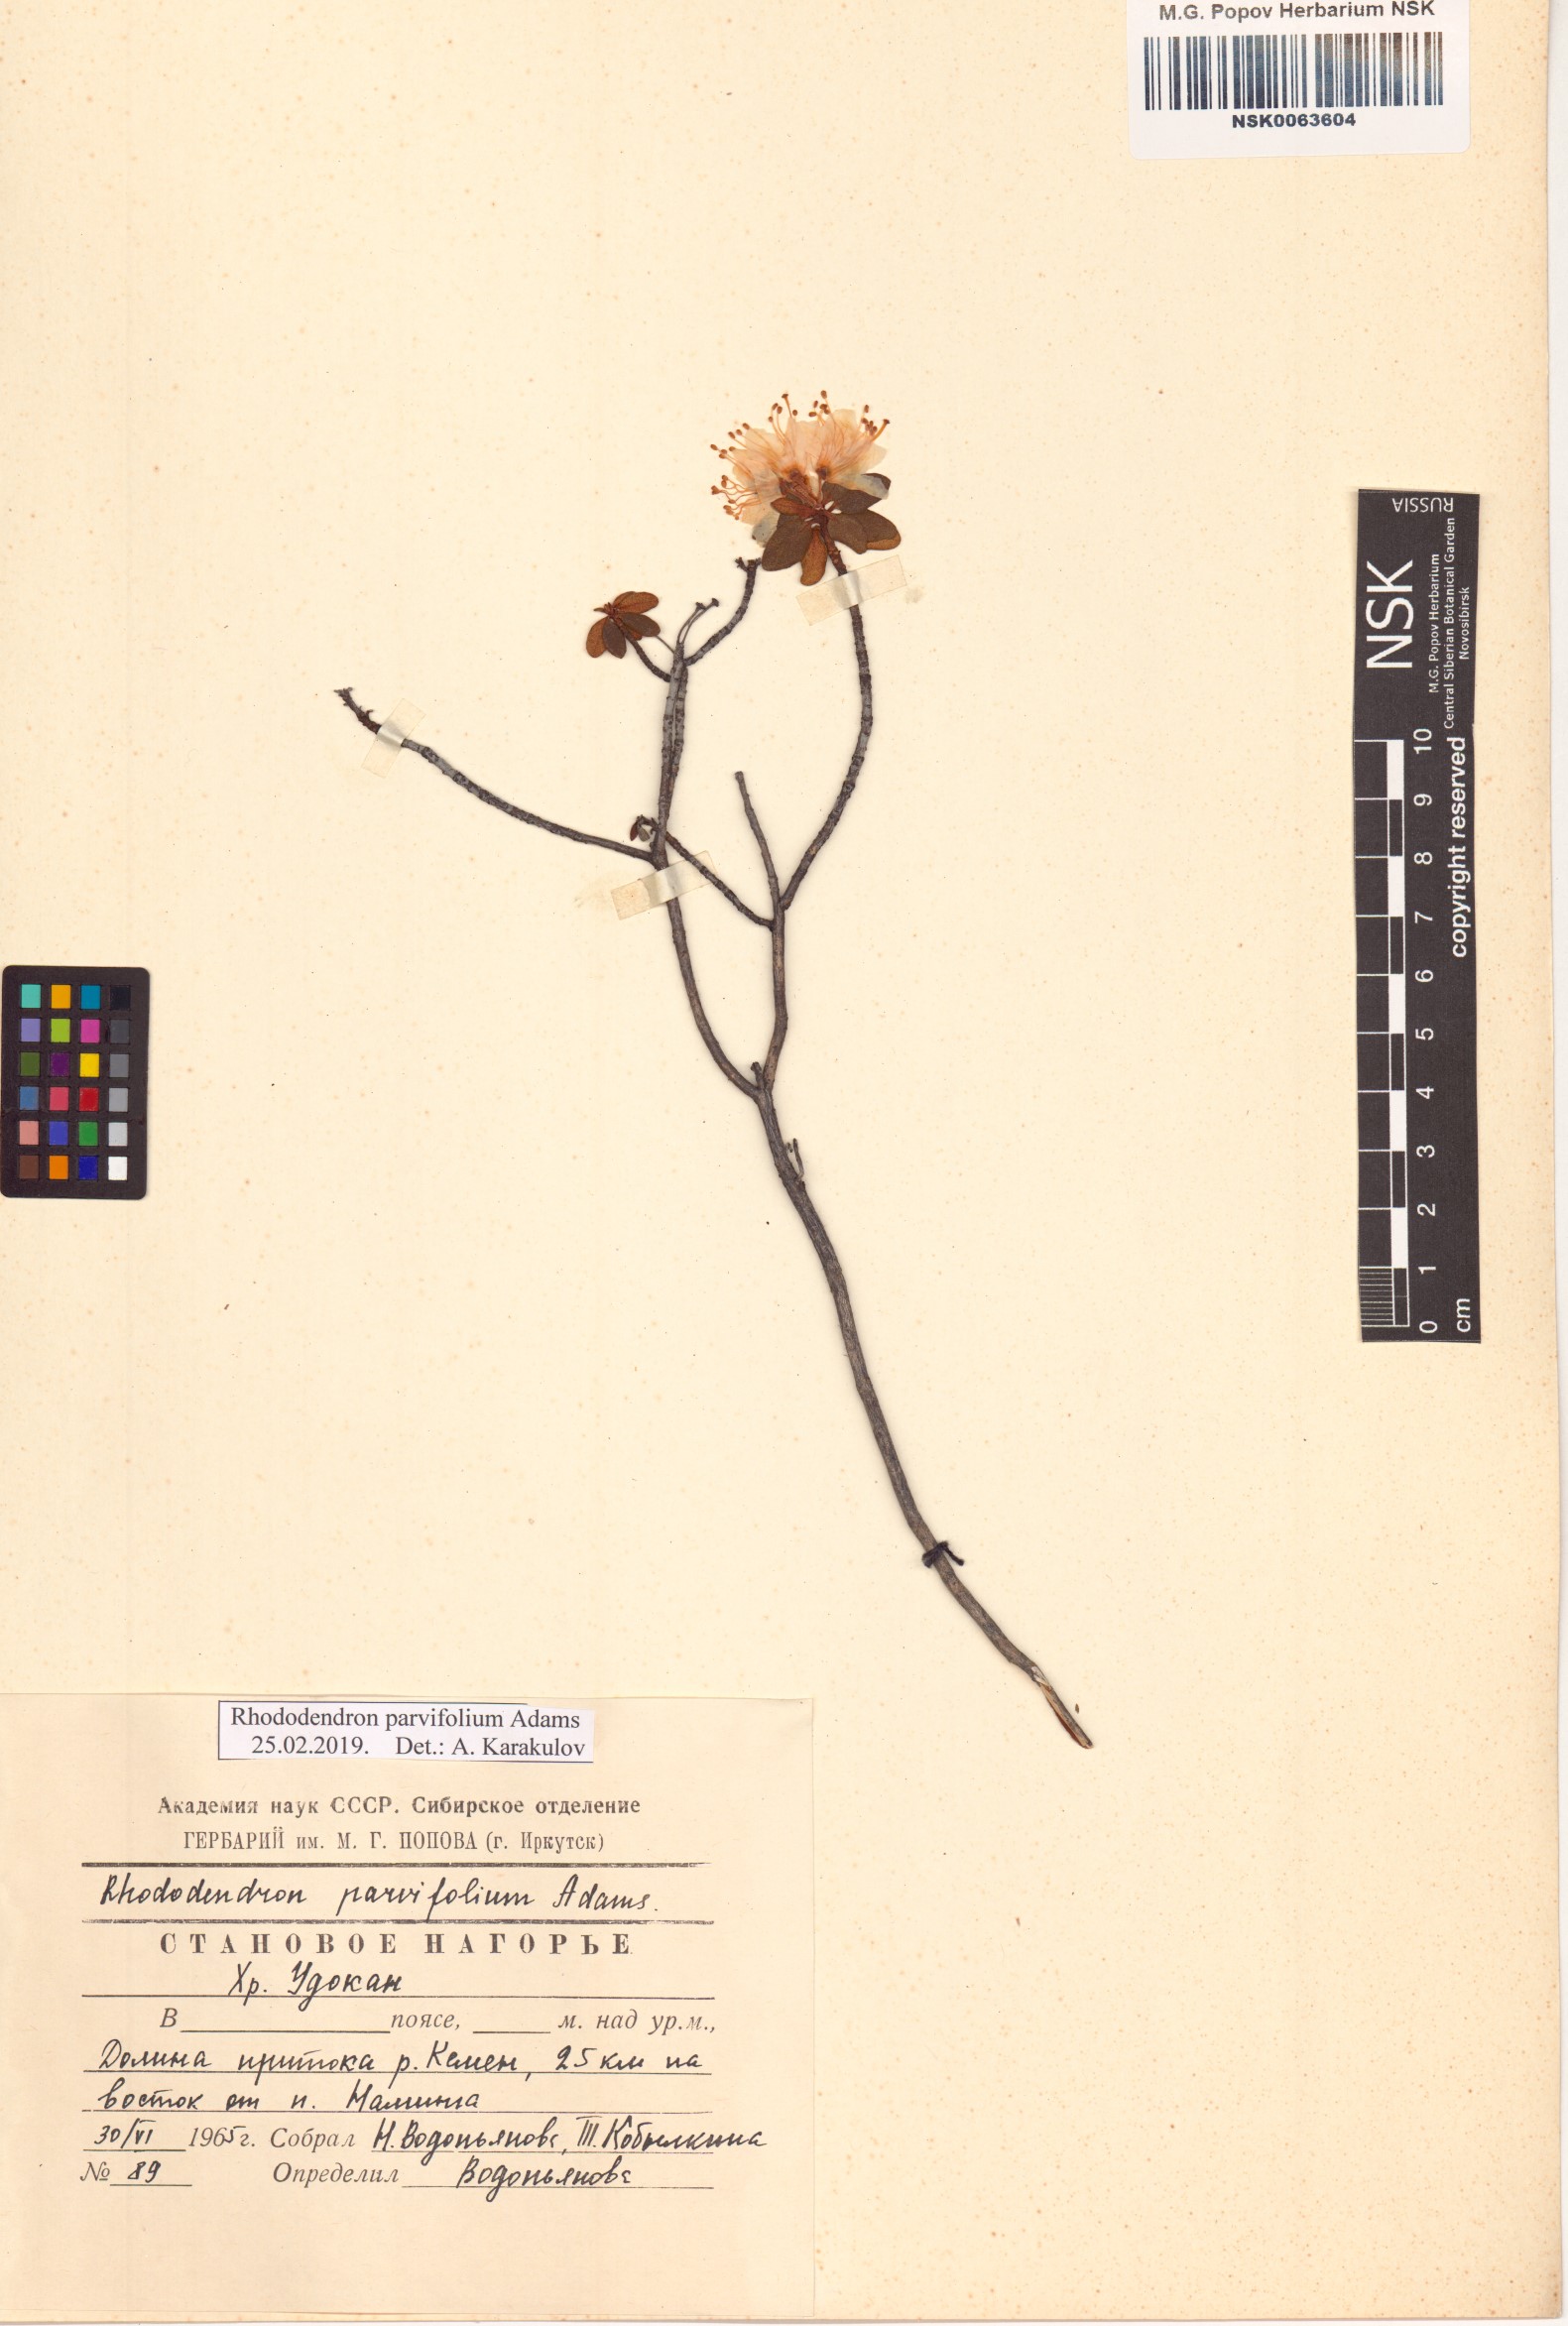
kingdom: Plantae
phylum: Tracheophyta
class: Magnoliopsida
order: Ericales
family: Ericaceae
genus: Rhododendron
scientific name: Rhododendron parvifolium
